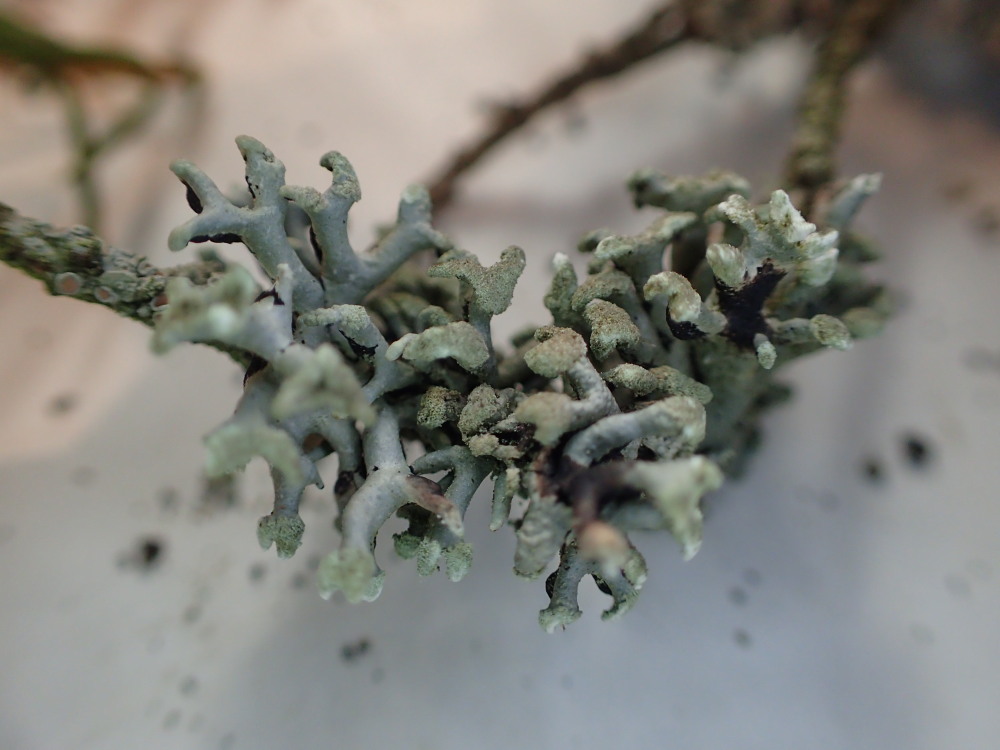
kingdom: Fungi
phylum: Ascomycota
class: Lecanoromycetes
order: Lecanorales
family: Parmeliaceae
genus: Hypogymnia
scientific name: Hypogymnia tubulosa
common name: finger-kvistlav
